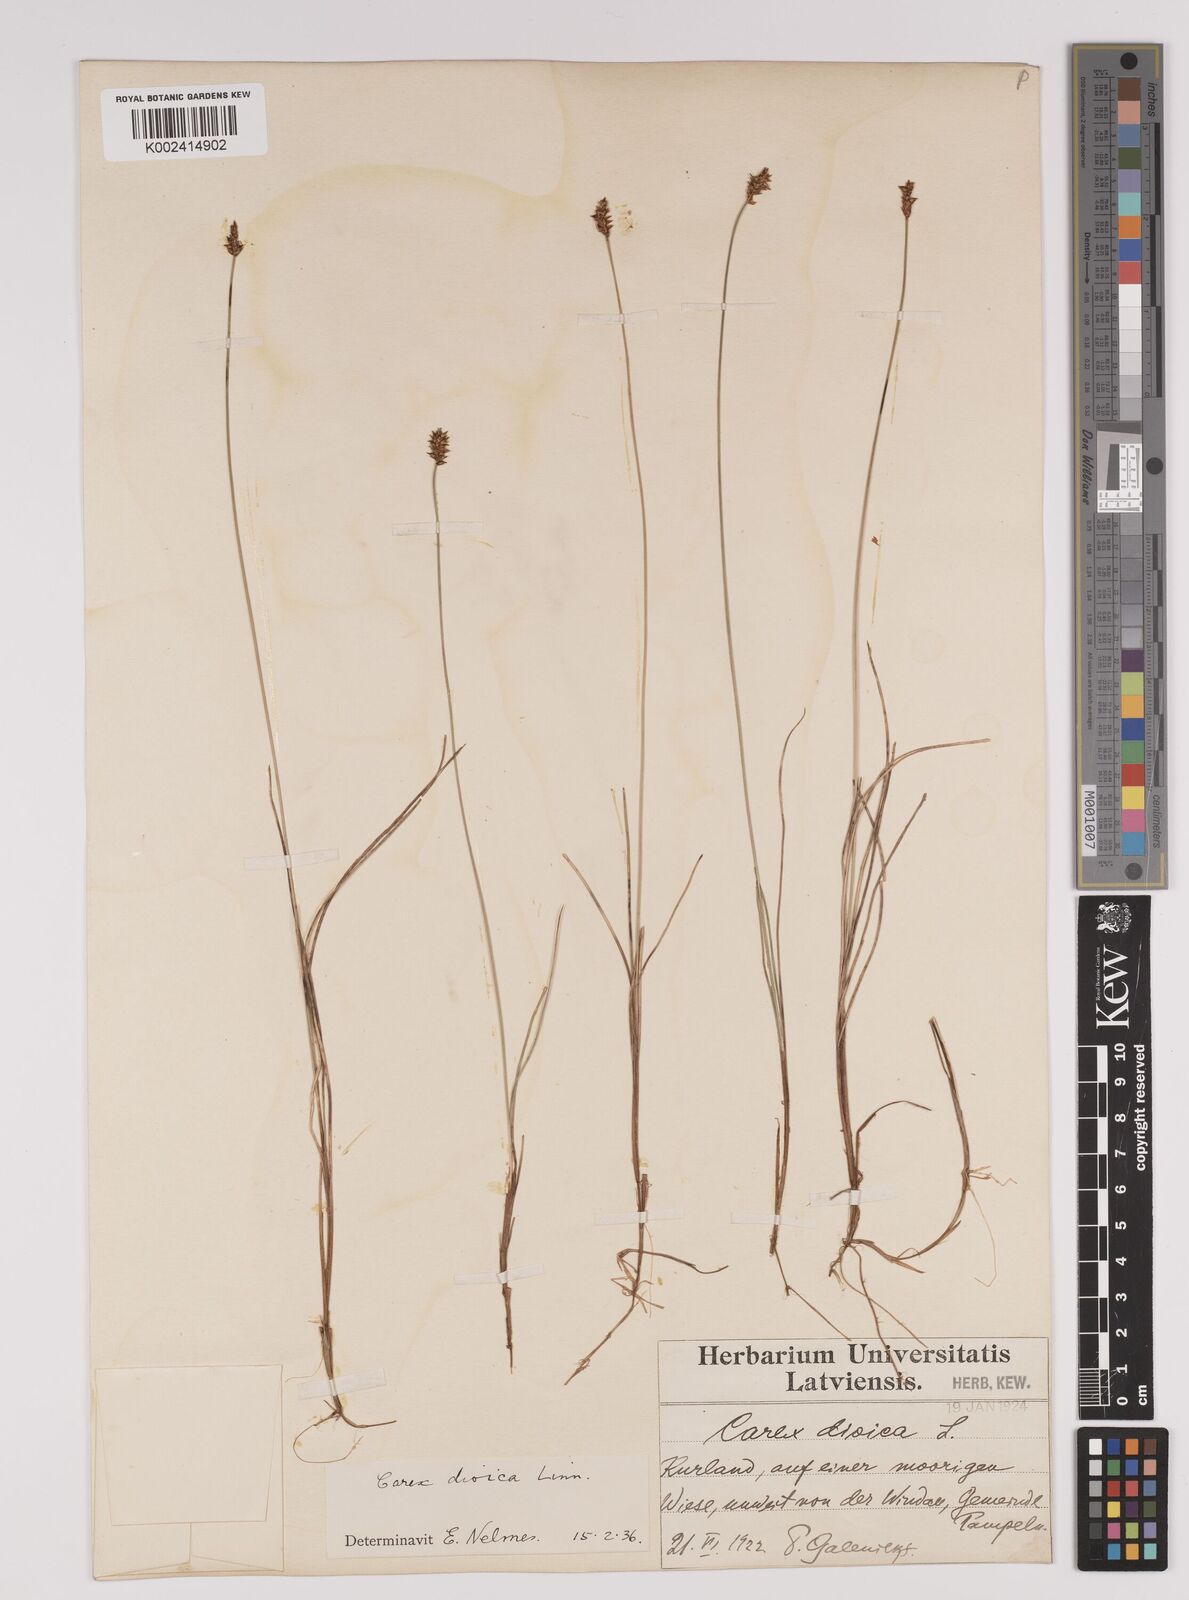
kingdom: Plantae
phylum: Tracheophyta
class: Liliopsida
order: Poales
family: Cyperaceae
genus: Carex
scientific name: Carex dioica
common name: Dioecious sedge
